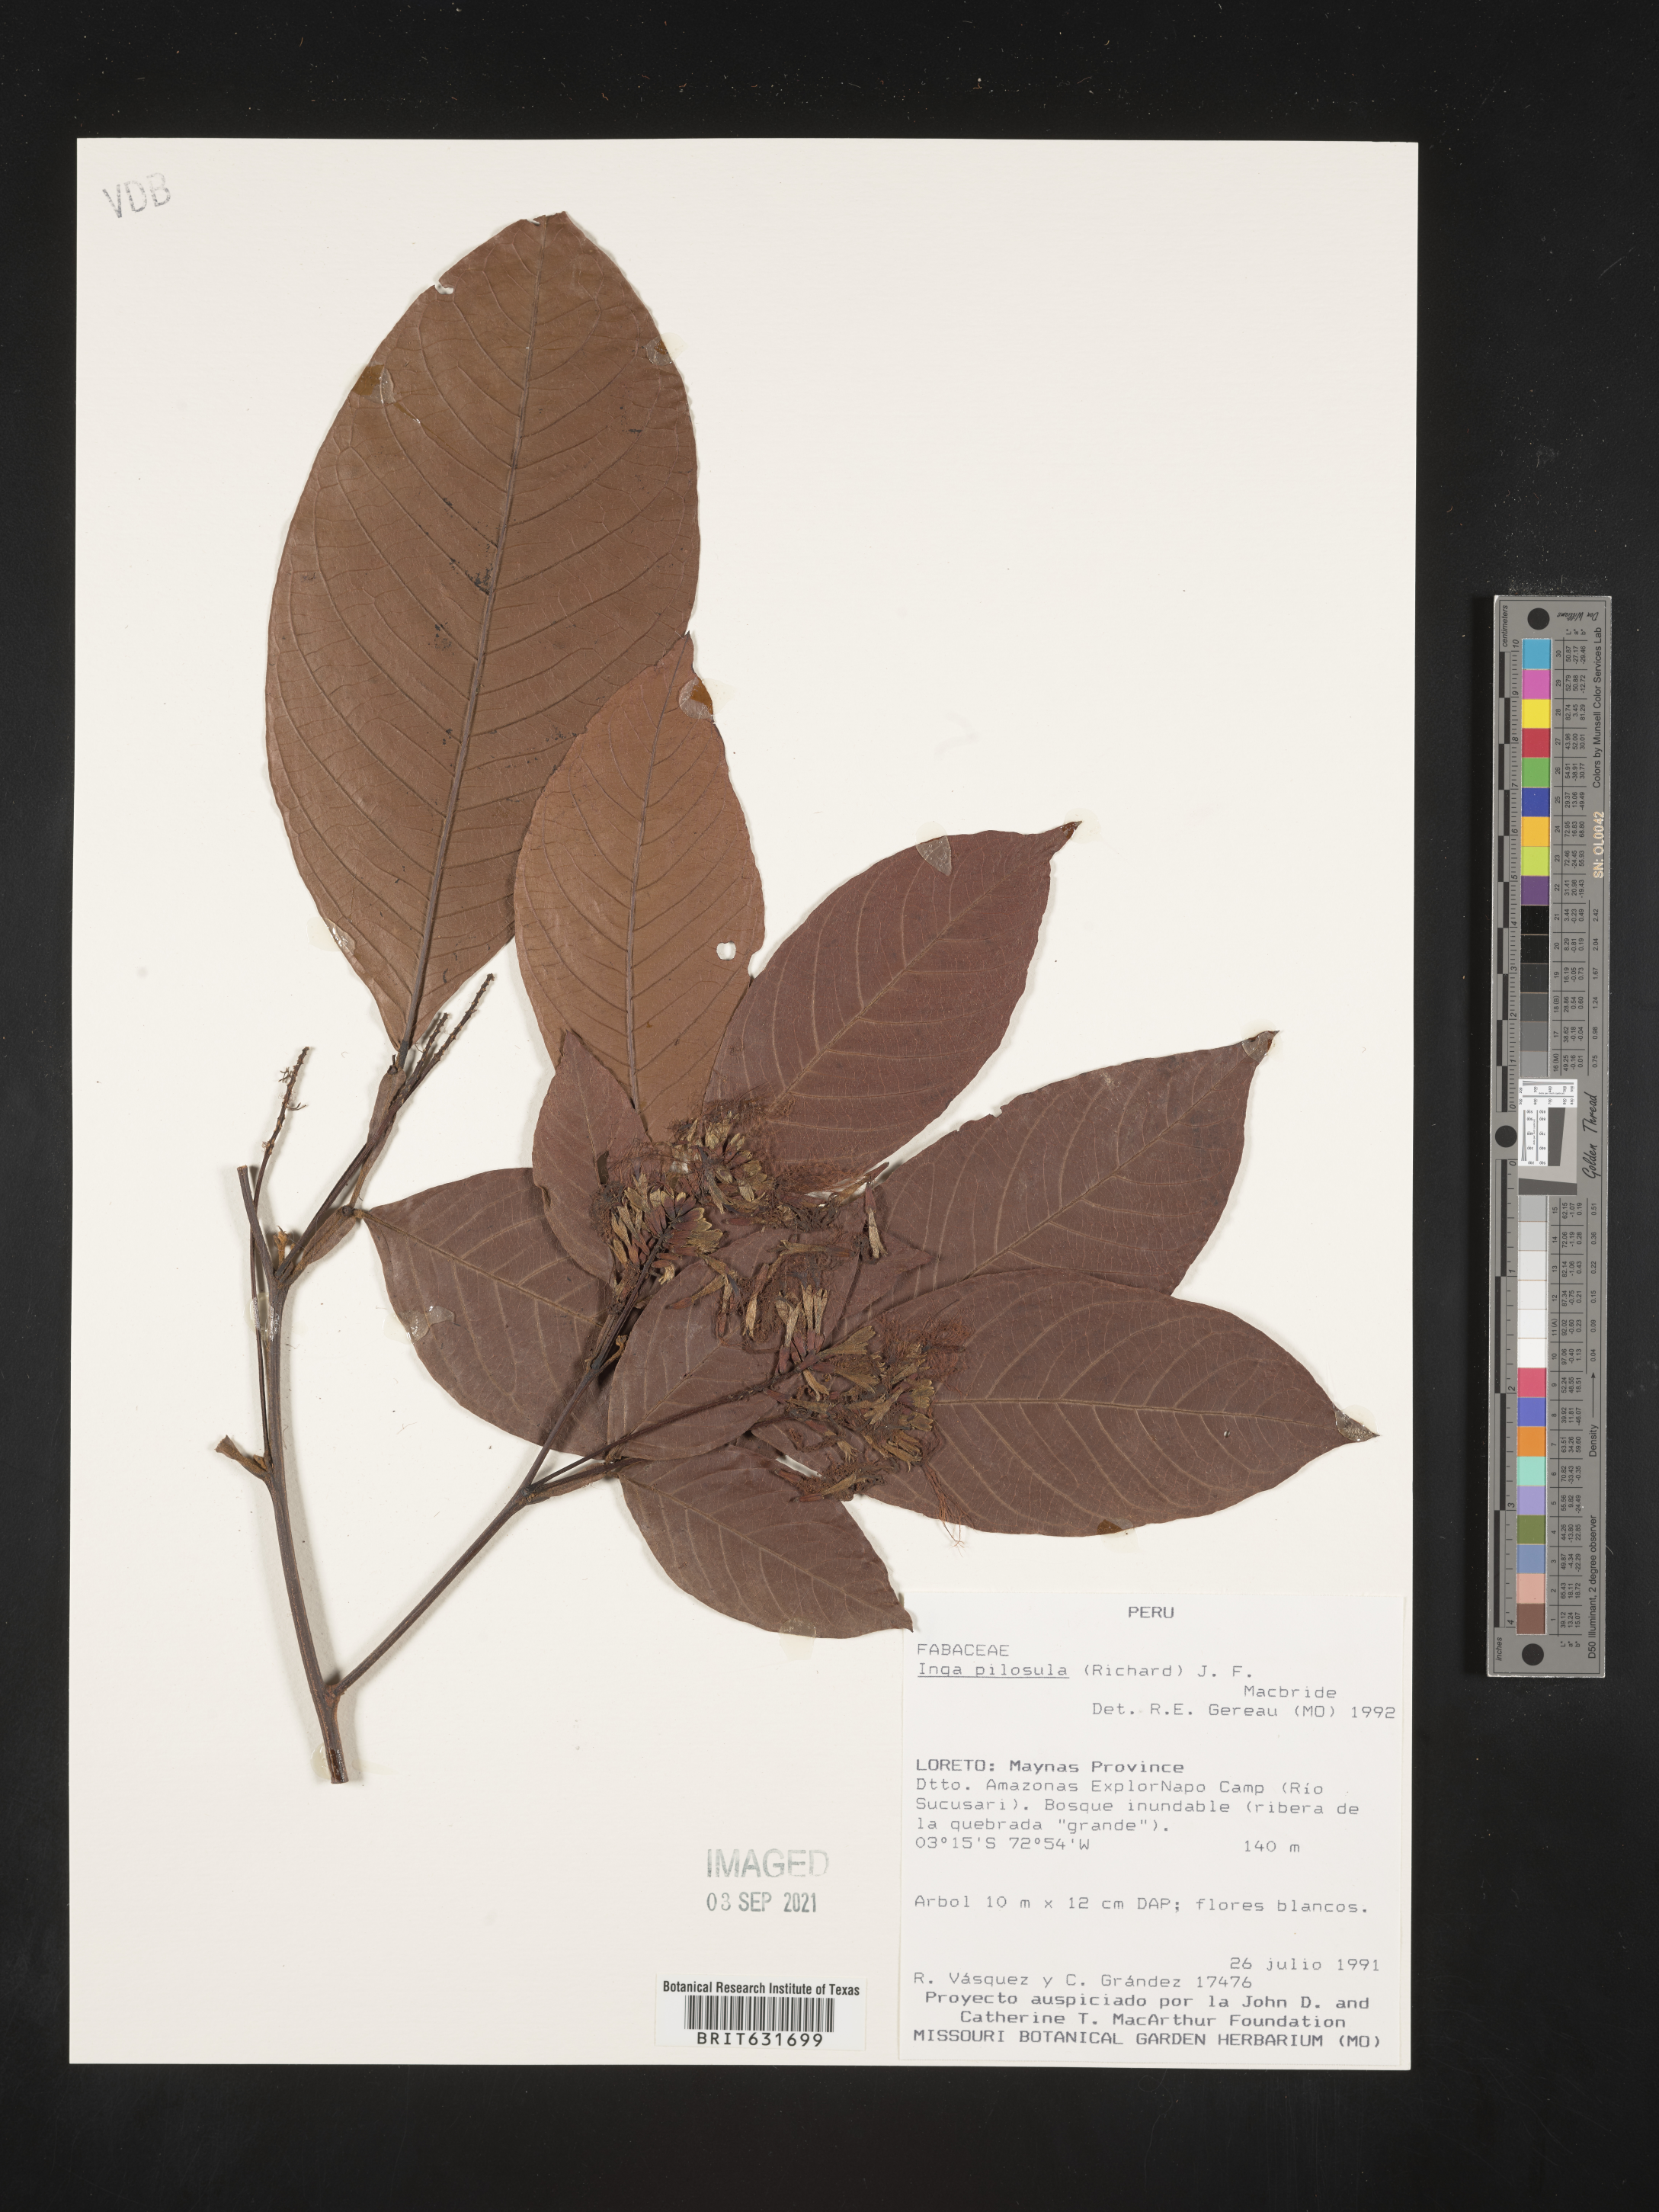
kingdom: Plantae
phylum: Tracheophyta
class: Magnoliopsida
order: Fabales
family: Fabaceae
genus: Inga
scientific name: Inga
